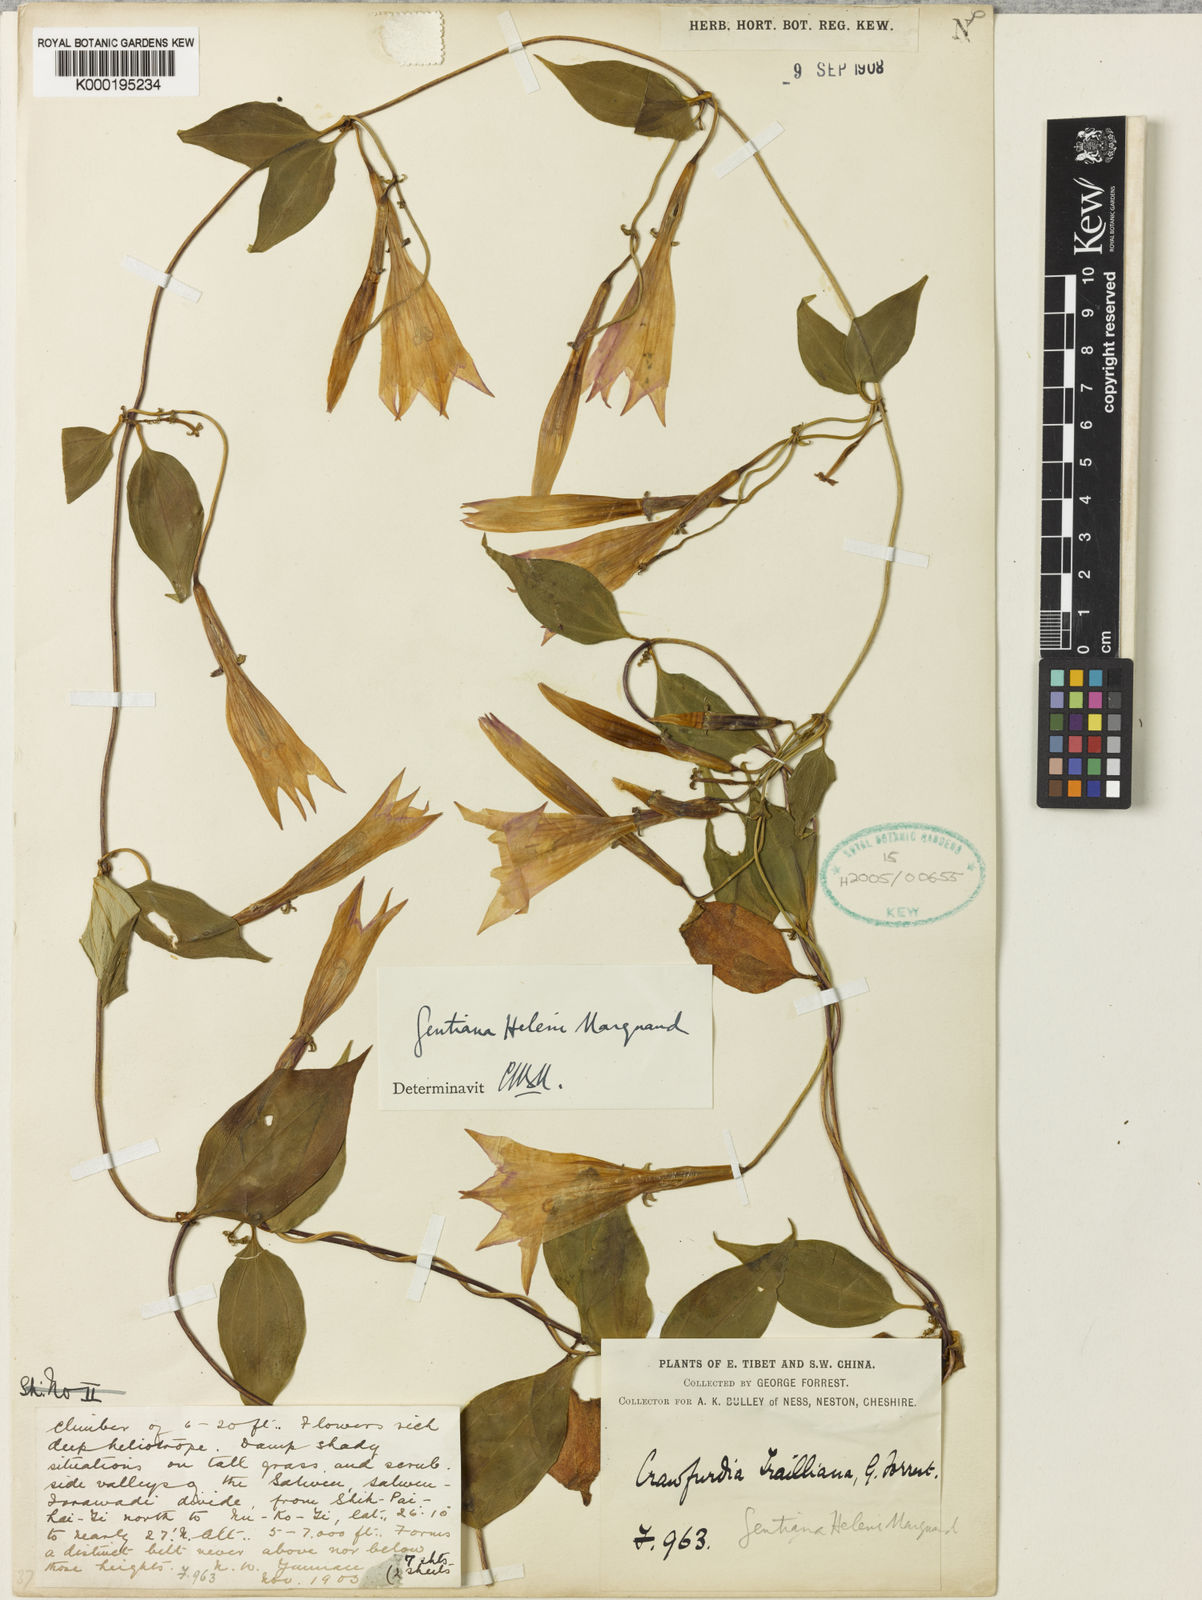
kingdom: Plantae
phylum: Tracheophyta
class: Magnoliopsida
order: Gentianales
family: Gentianaceae
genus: Crawfurdia
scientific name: Crawfurdia angustata
